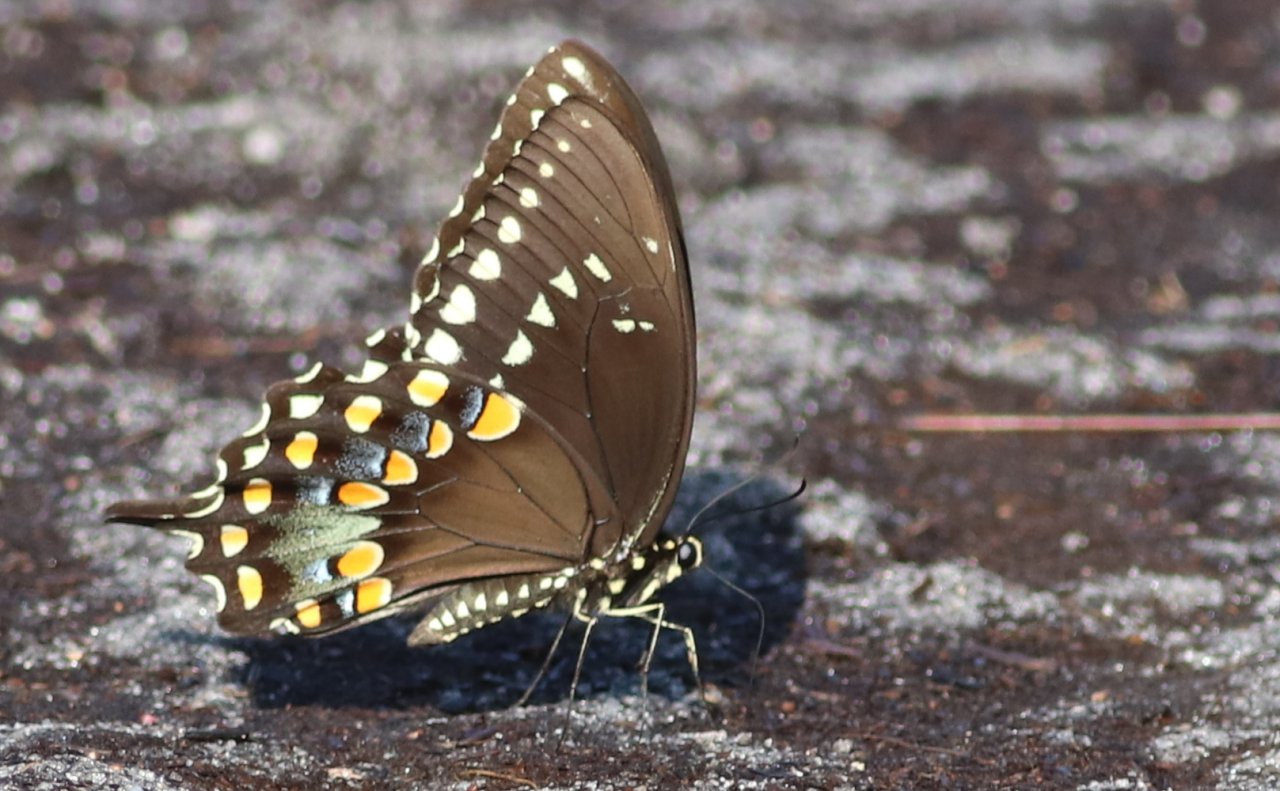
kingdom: Animalia
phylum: Arthropoda
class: Insecta
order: Lepidoptera
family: Papilionidae
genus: Pterourus
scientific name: Pterourus troilus
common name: Spicebush Swallowtail
